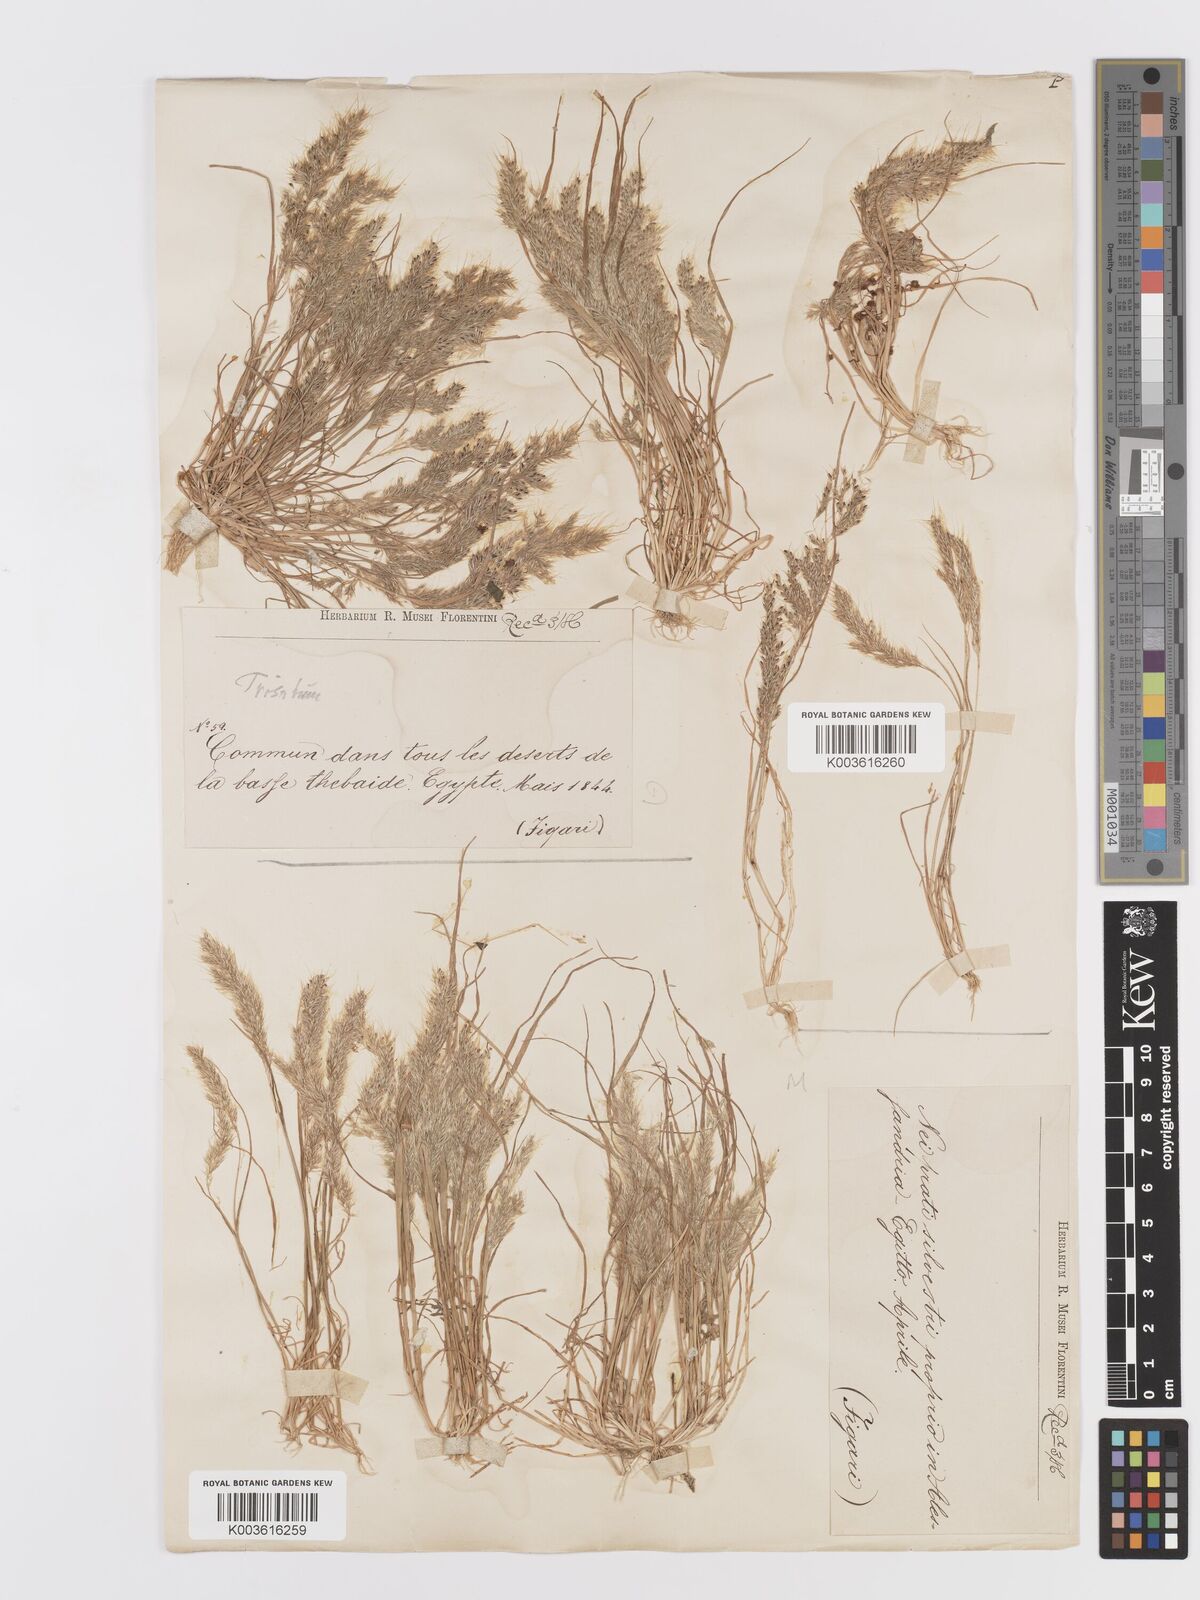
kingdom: Plantae
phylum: Tracheophyta
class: Liliopsida
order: Poales
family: Poaceae
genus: Trisetaria
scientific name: Trisetaria macrochaeta
